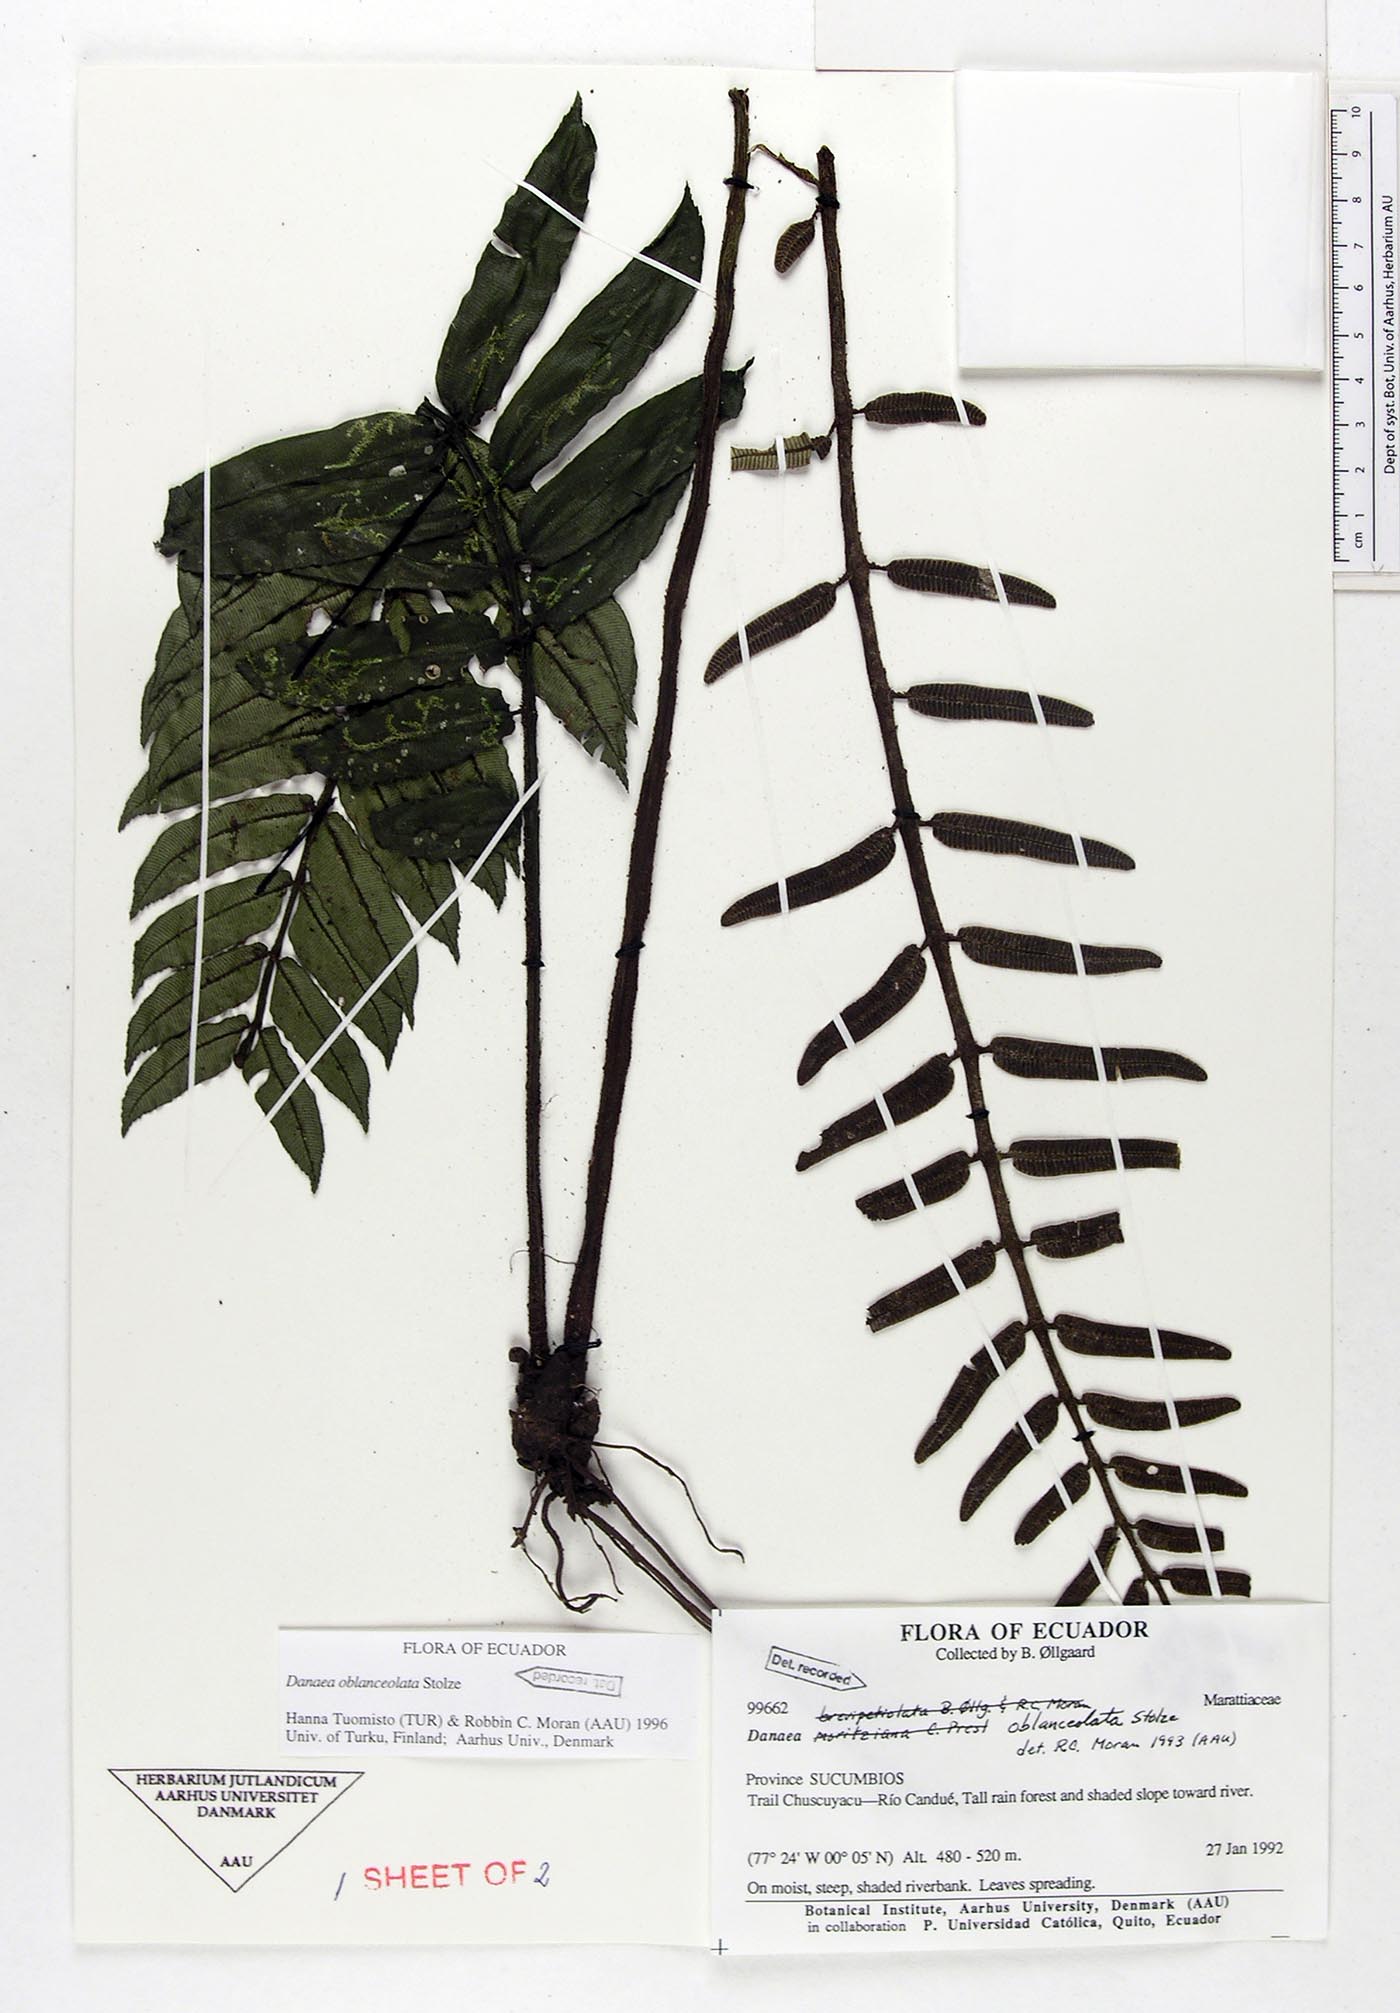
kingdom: Plantae
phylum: Tracheophyta
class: Polypodiopsida
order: Marattiales
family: Marattiaceae
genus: Danaea
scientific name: Danaea oblanceolata
